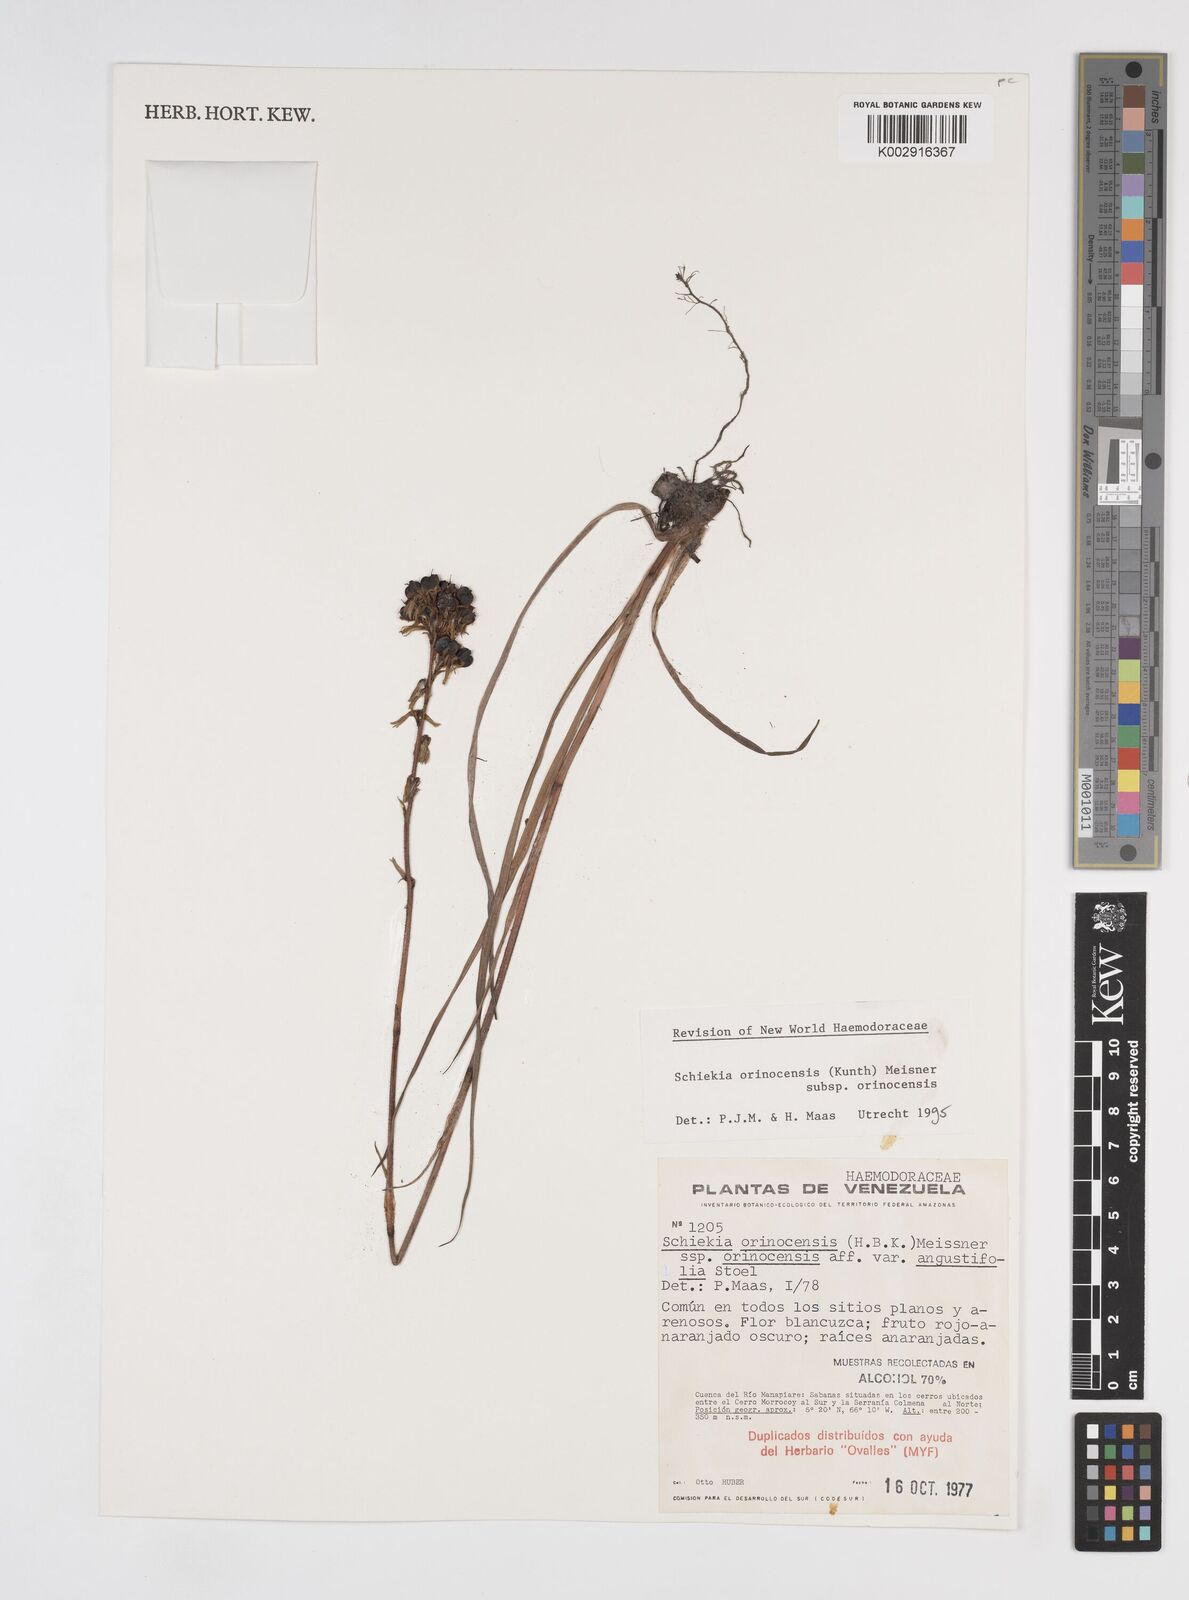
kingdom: Plantae
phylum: Tracheophyta
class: Liliopsida
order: Commelinales
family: Haemodoraceae
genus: Schiekia
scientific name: Schiekia orinocensis
